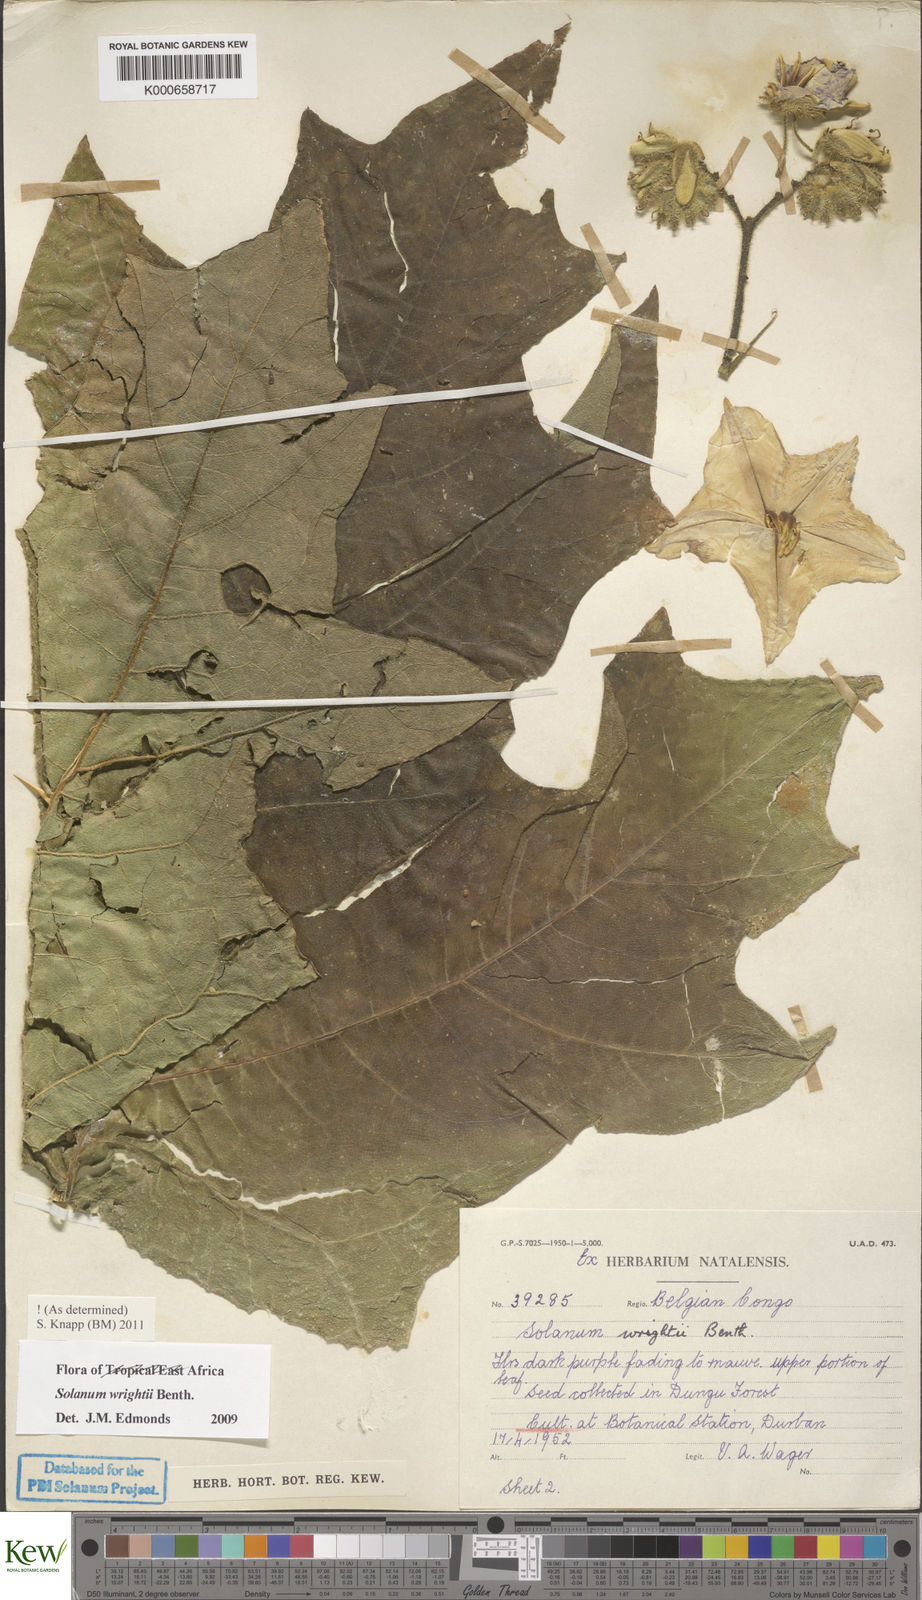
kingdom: Plantae
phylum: Tracheophyta
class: Magnoliopsida
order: Solanales
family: Solanaceae
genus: Solanum
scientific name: Solanum wrightii
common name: Brazilian potato-tree
